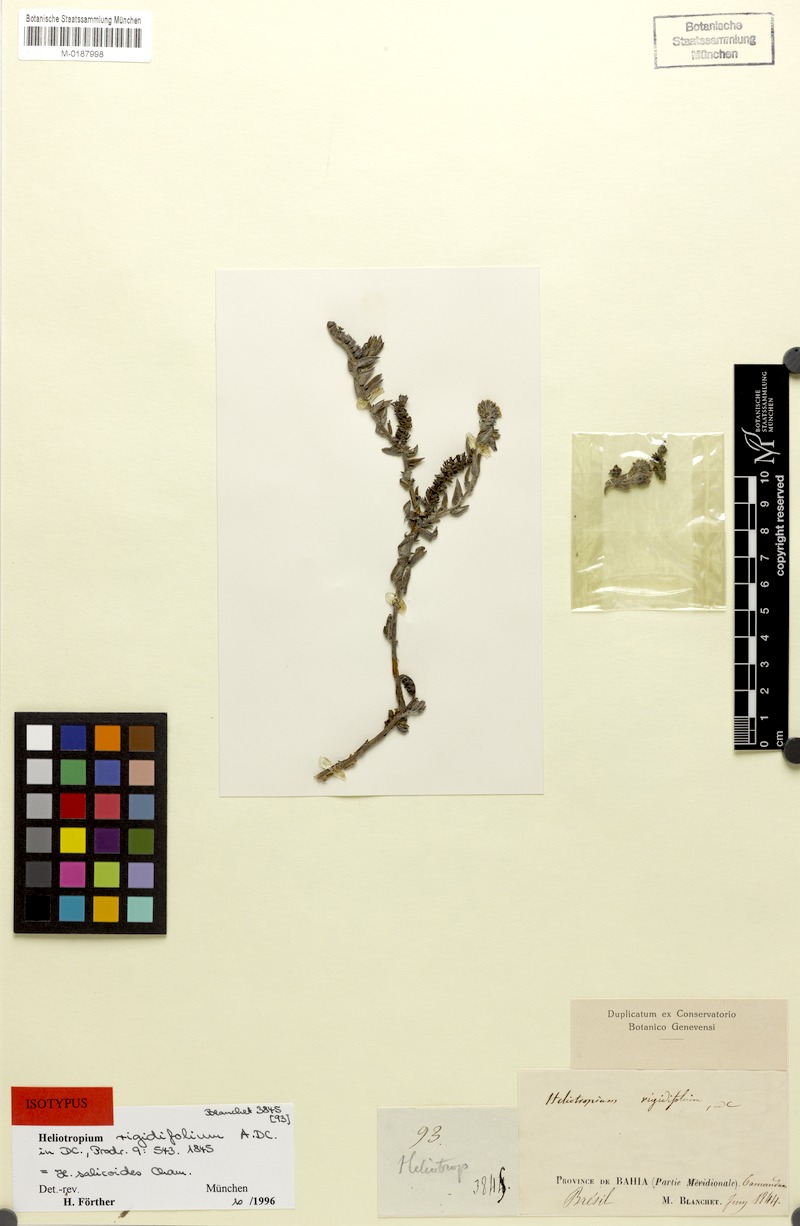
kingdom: Plantae
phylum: Tracheophyta
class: Magnoliopsida
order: Boraginales
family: Heliotropiaceae
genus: Euploca
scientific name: Euploca salicoides
